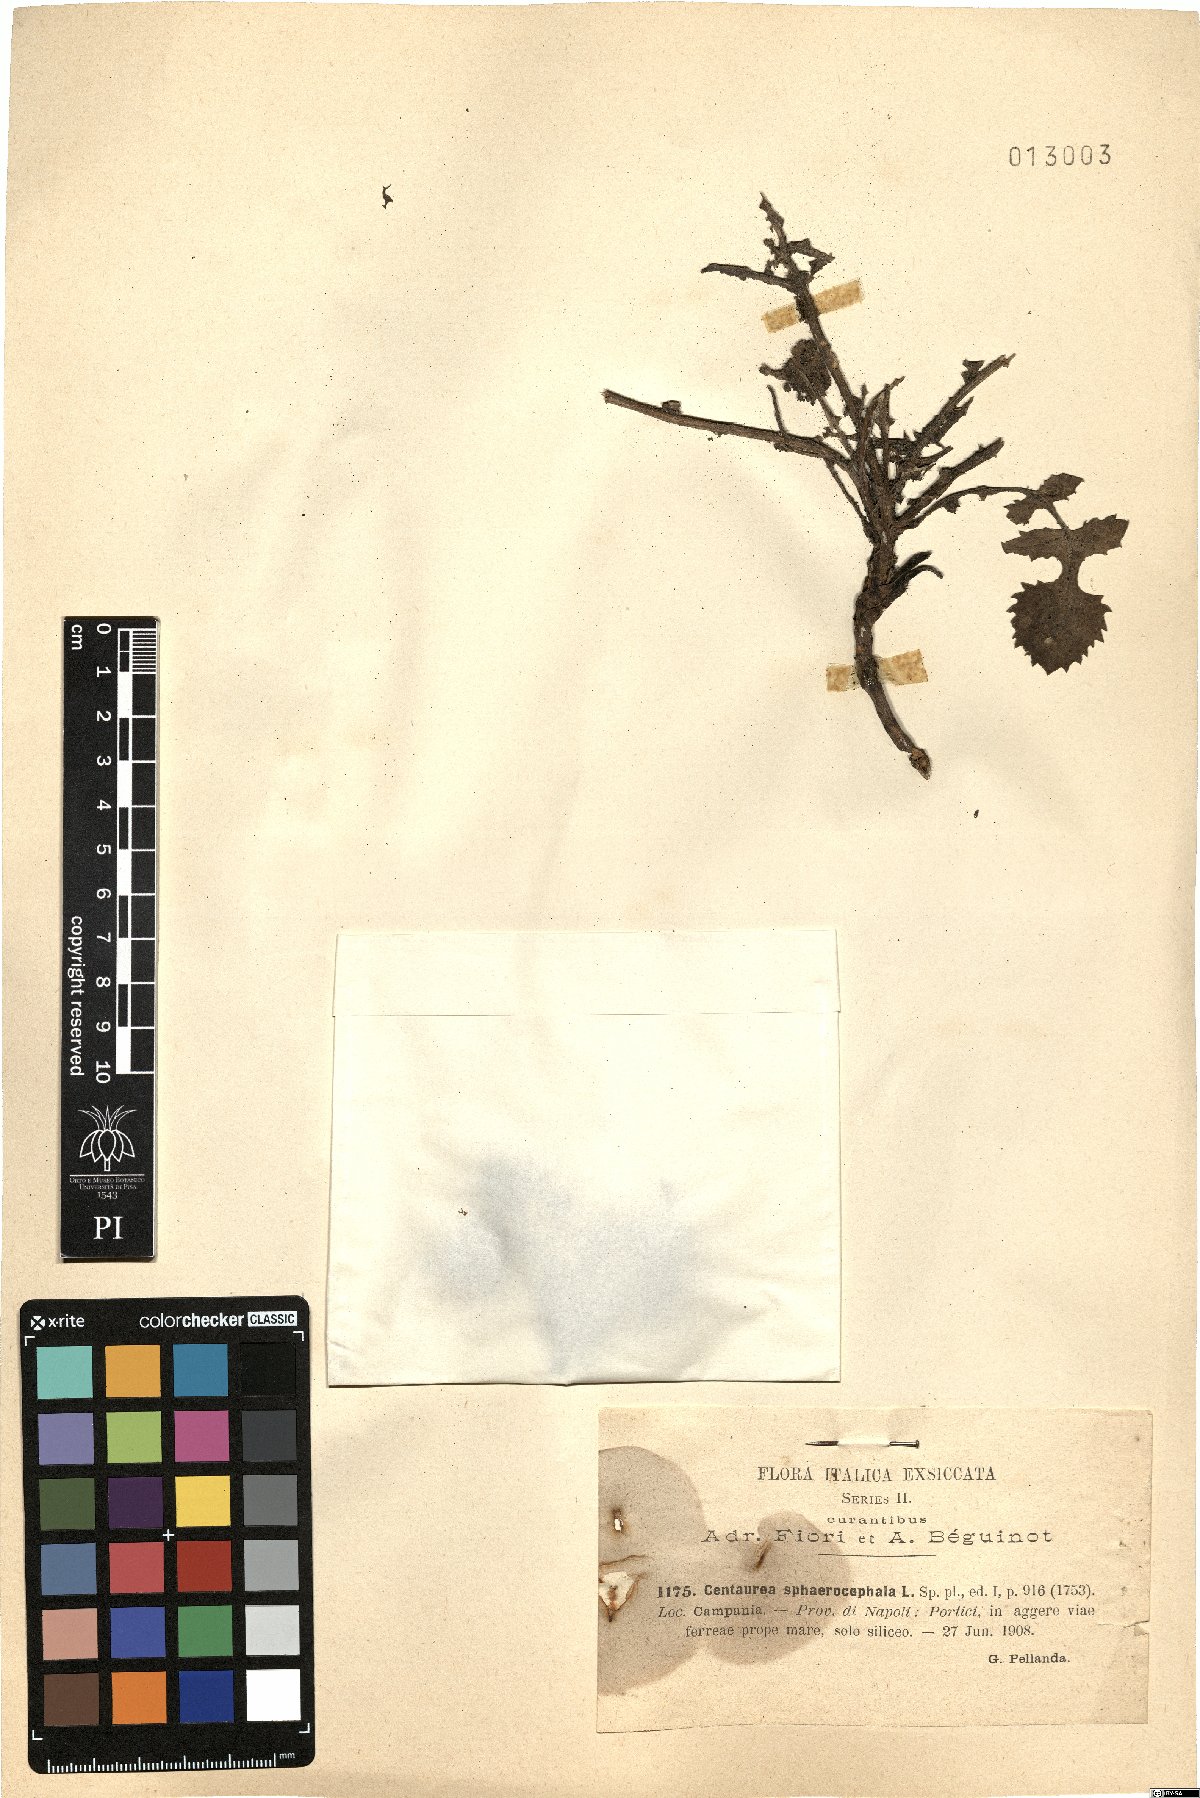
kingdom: Plantae
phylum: Tracheophyta
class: Magnoliopsida
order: Asterales
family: Asteraceae
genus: Centaurea
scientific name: Centaurea sphaerocephala
